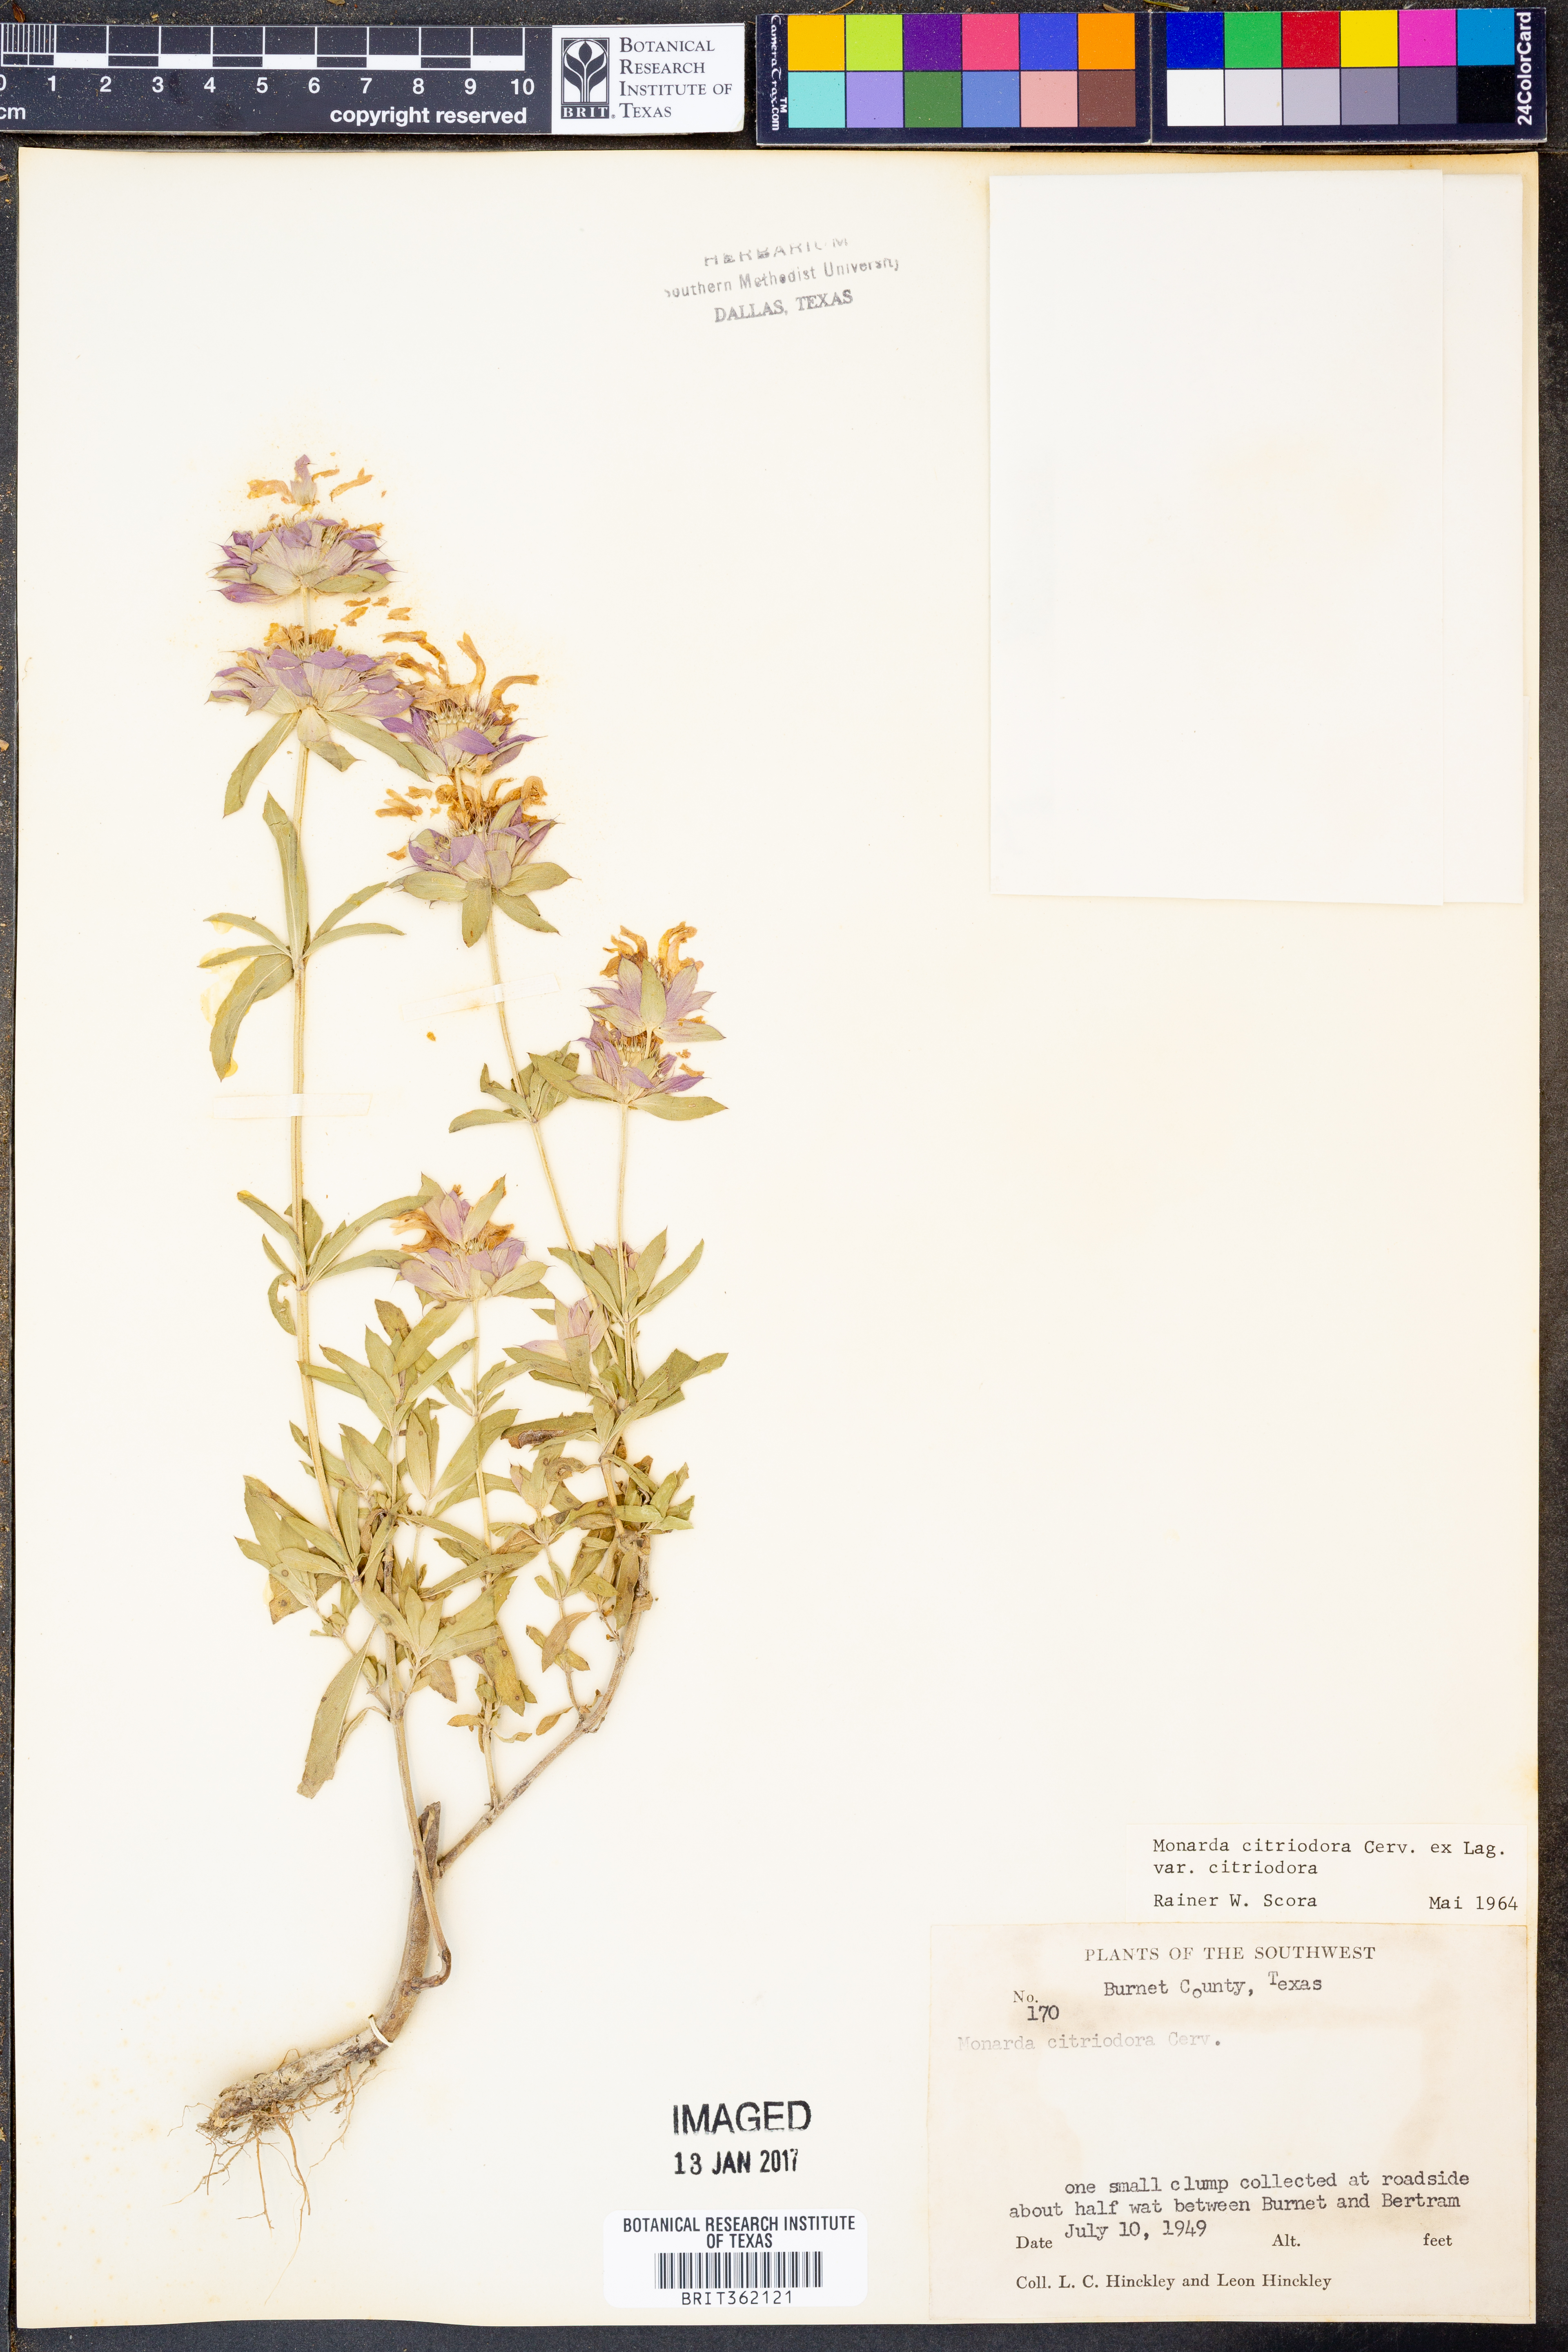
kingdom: Plantae
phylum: Tracheophyta
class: Magnoliopsida
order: Lamiales
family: Lamiaceae
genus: Monarda
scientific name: Monarda citriodora
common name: Lemon beebalm
